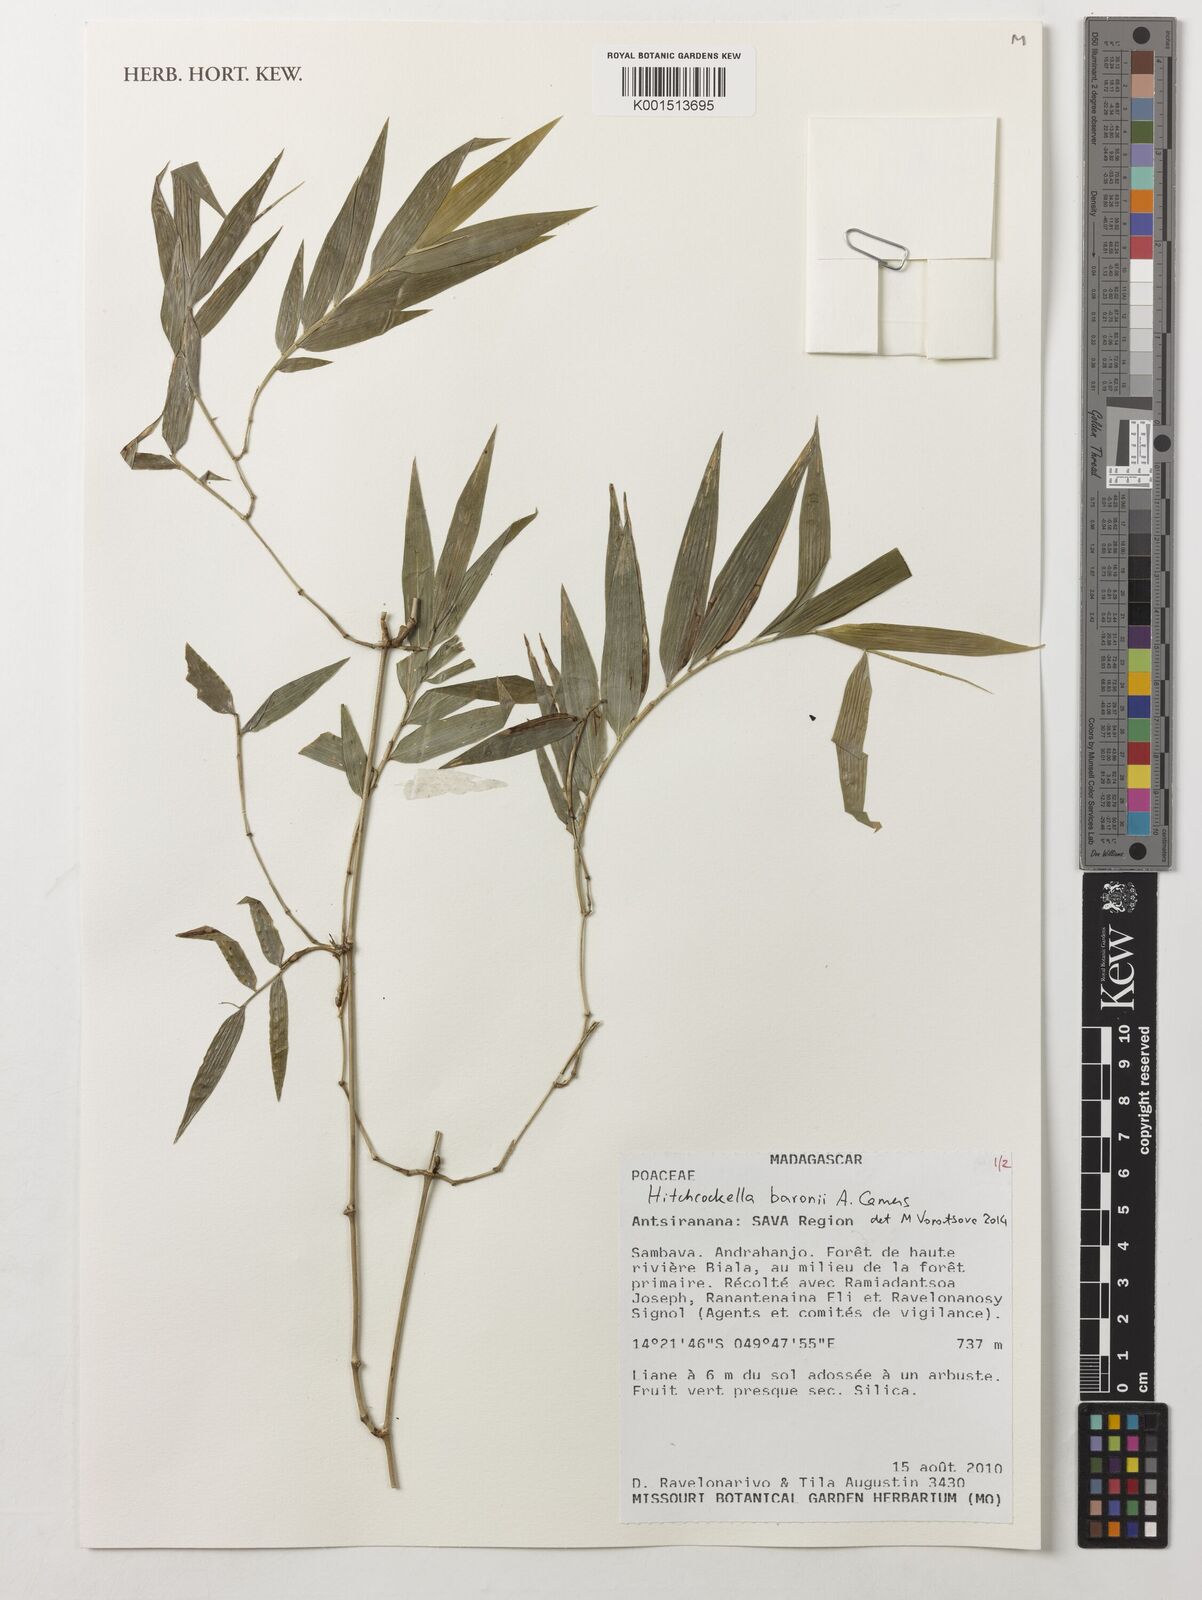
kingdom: Plantae
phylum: Tracheophyta
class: Liliopsida
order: Poales
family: Poaceae
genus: Hitchcockella
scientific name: Hitchcockella baronii
